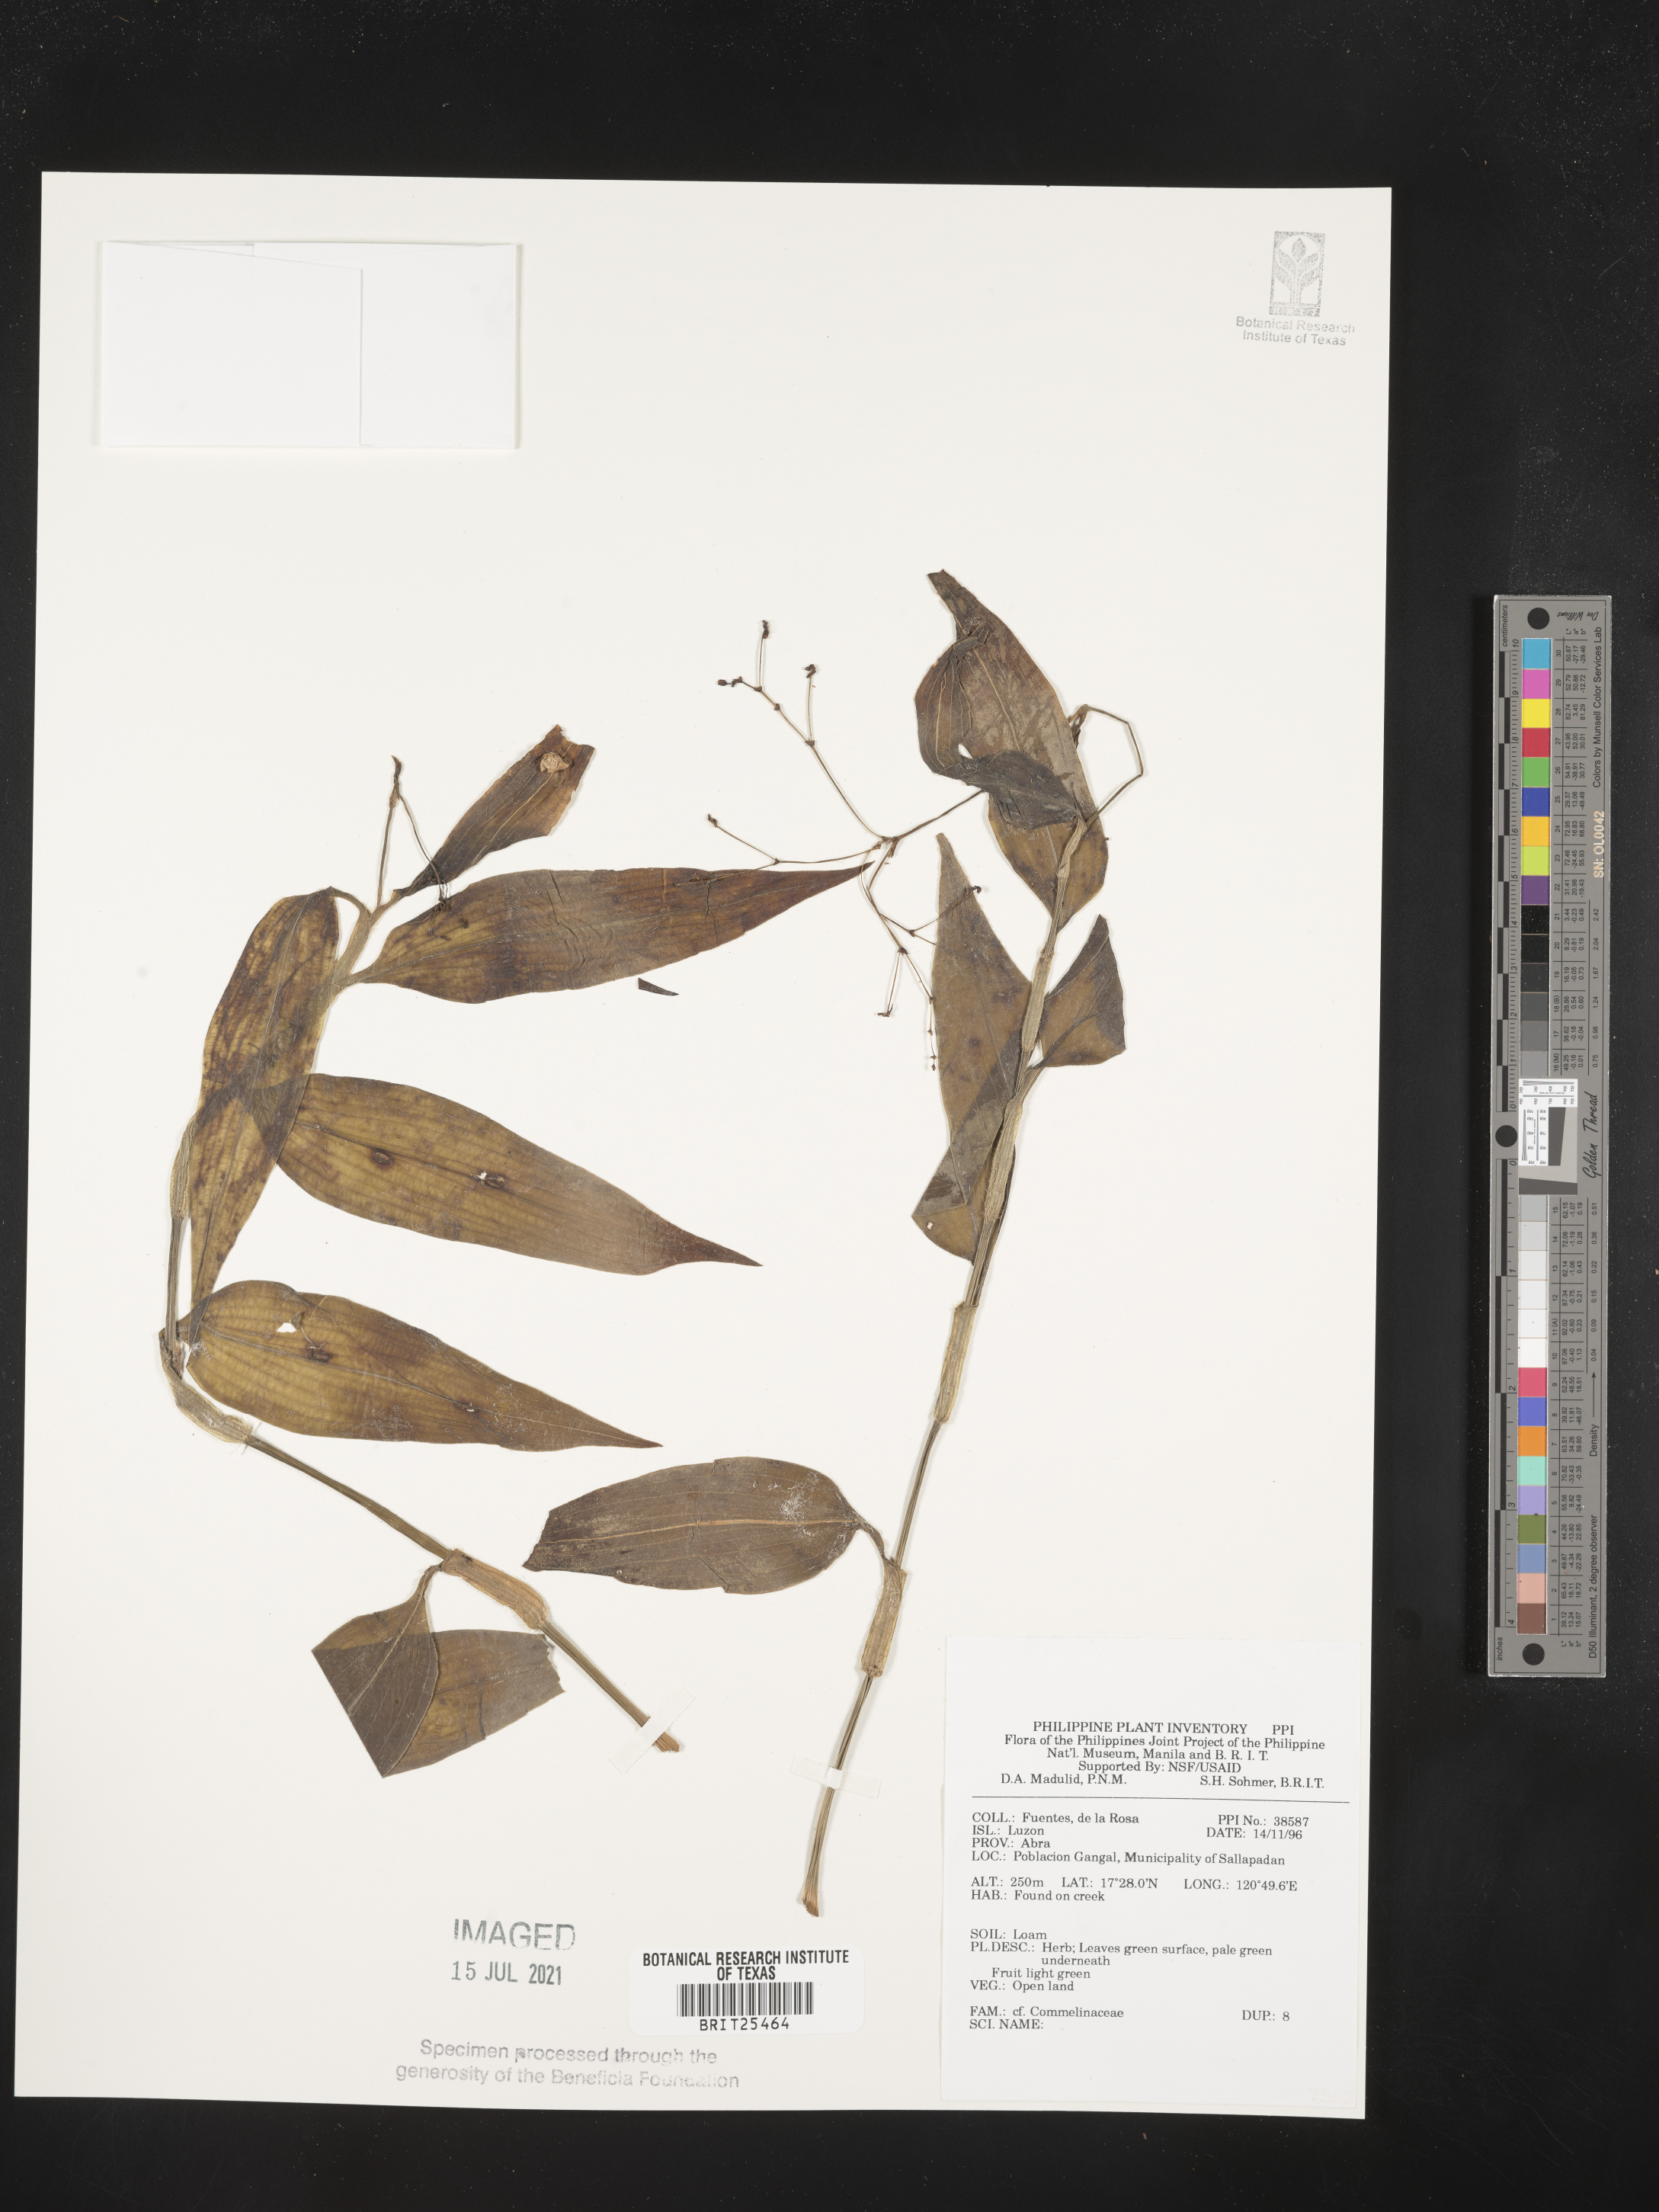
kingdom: Plantae
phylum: Tracheophyta
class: Liliopsida
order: Commelinales
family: Commelinaceae
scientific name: Commelinaceae
